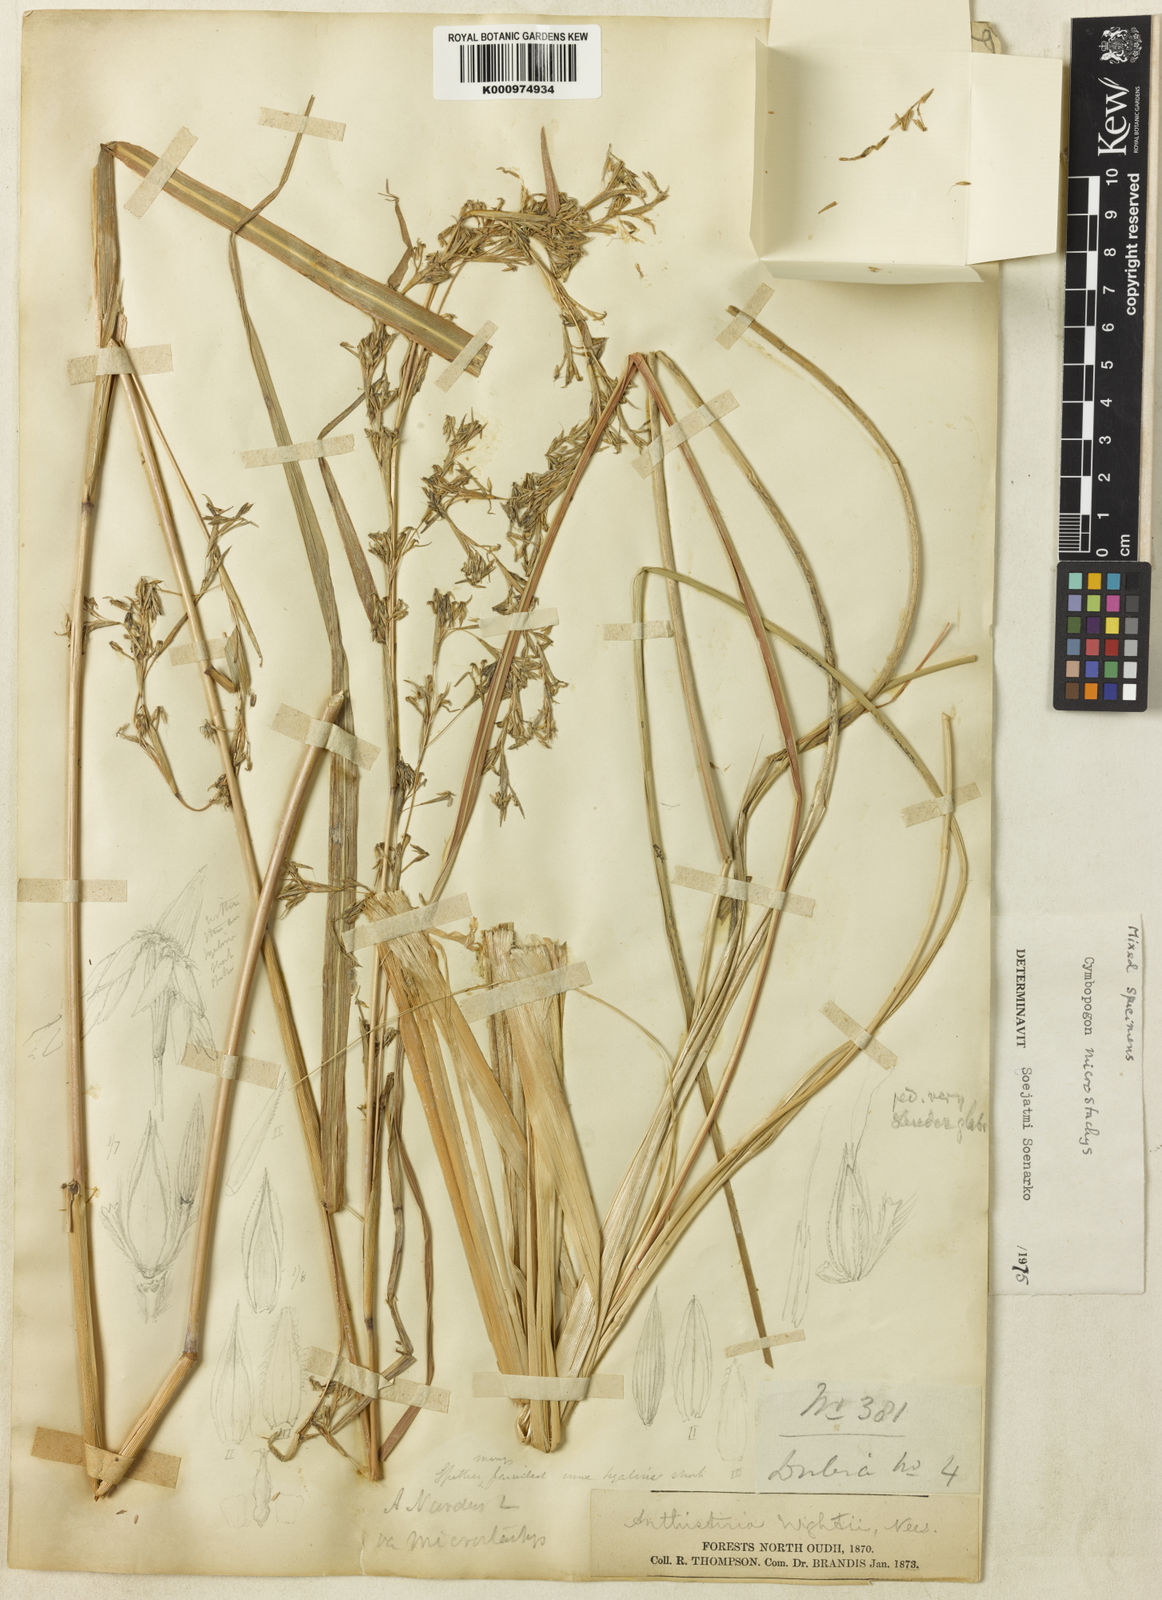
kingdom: Plantae
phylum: Tracheophyta
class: Liliopsida
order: Poales
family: Poaceae
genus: Cymbopogon
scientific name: Cymbopogon microstachys
